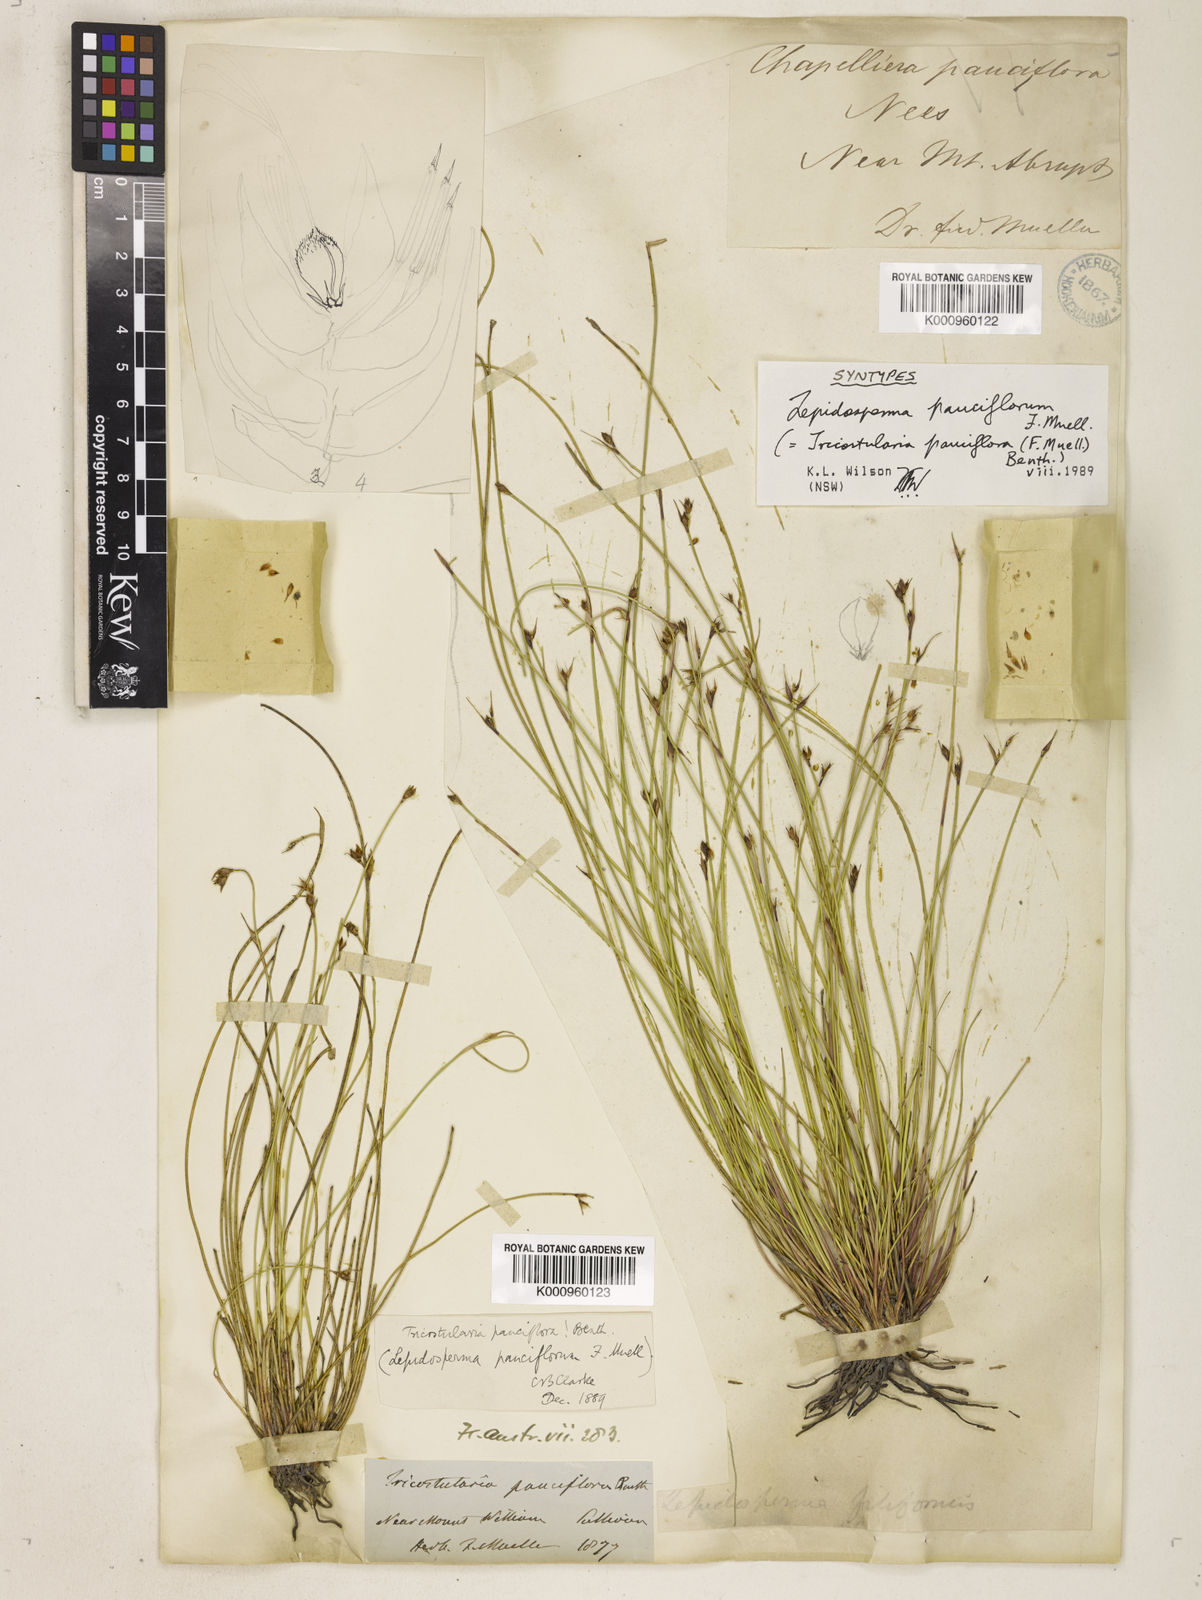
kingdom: Plantae
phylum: Tracheophyta
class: Liliopsida
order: Poales
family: Cyperaceae
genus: Tricostularia
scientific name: Tricostularia pauciflora
